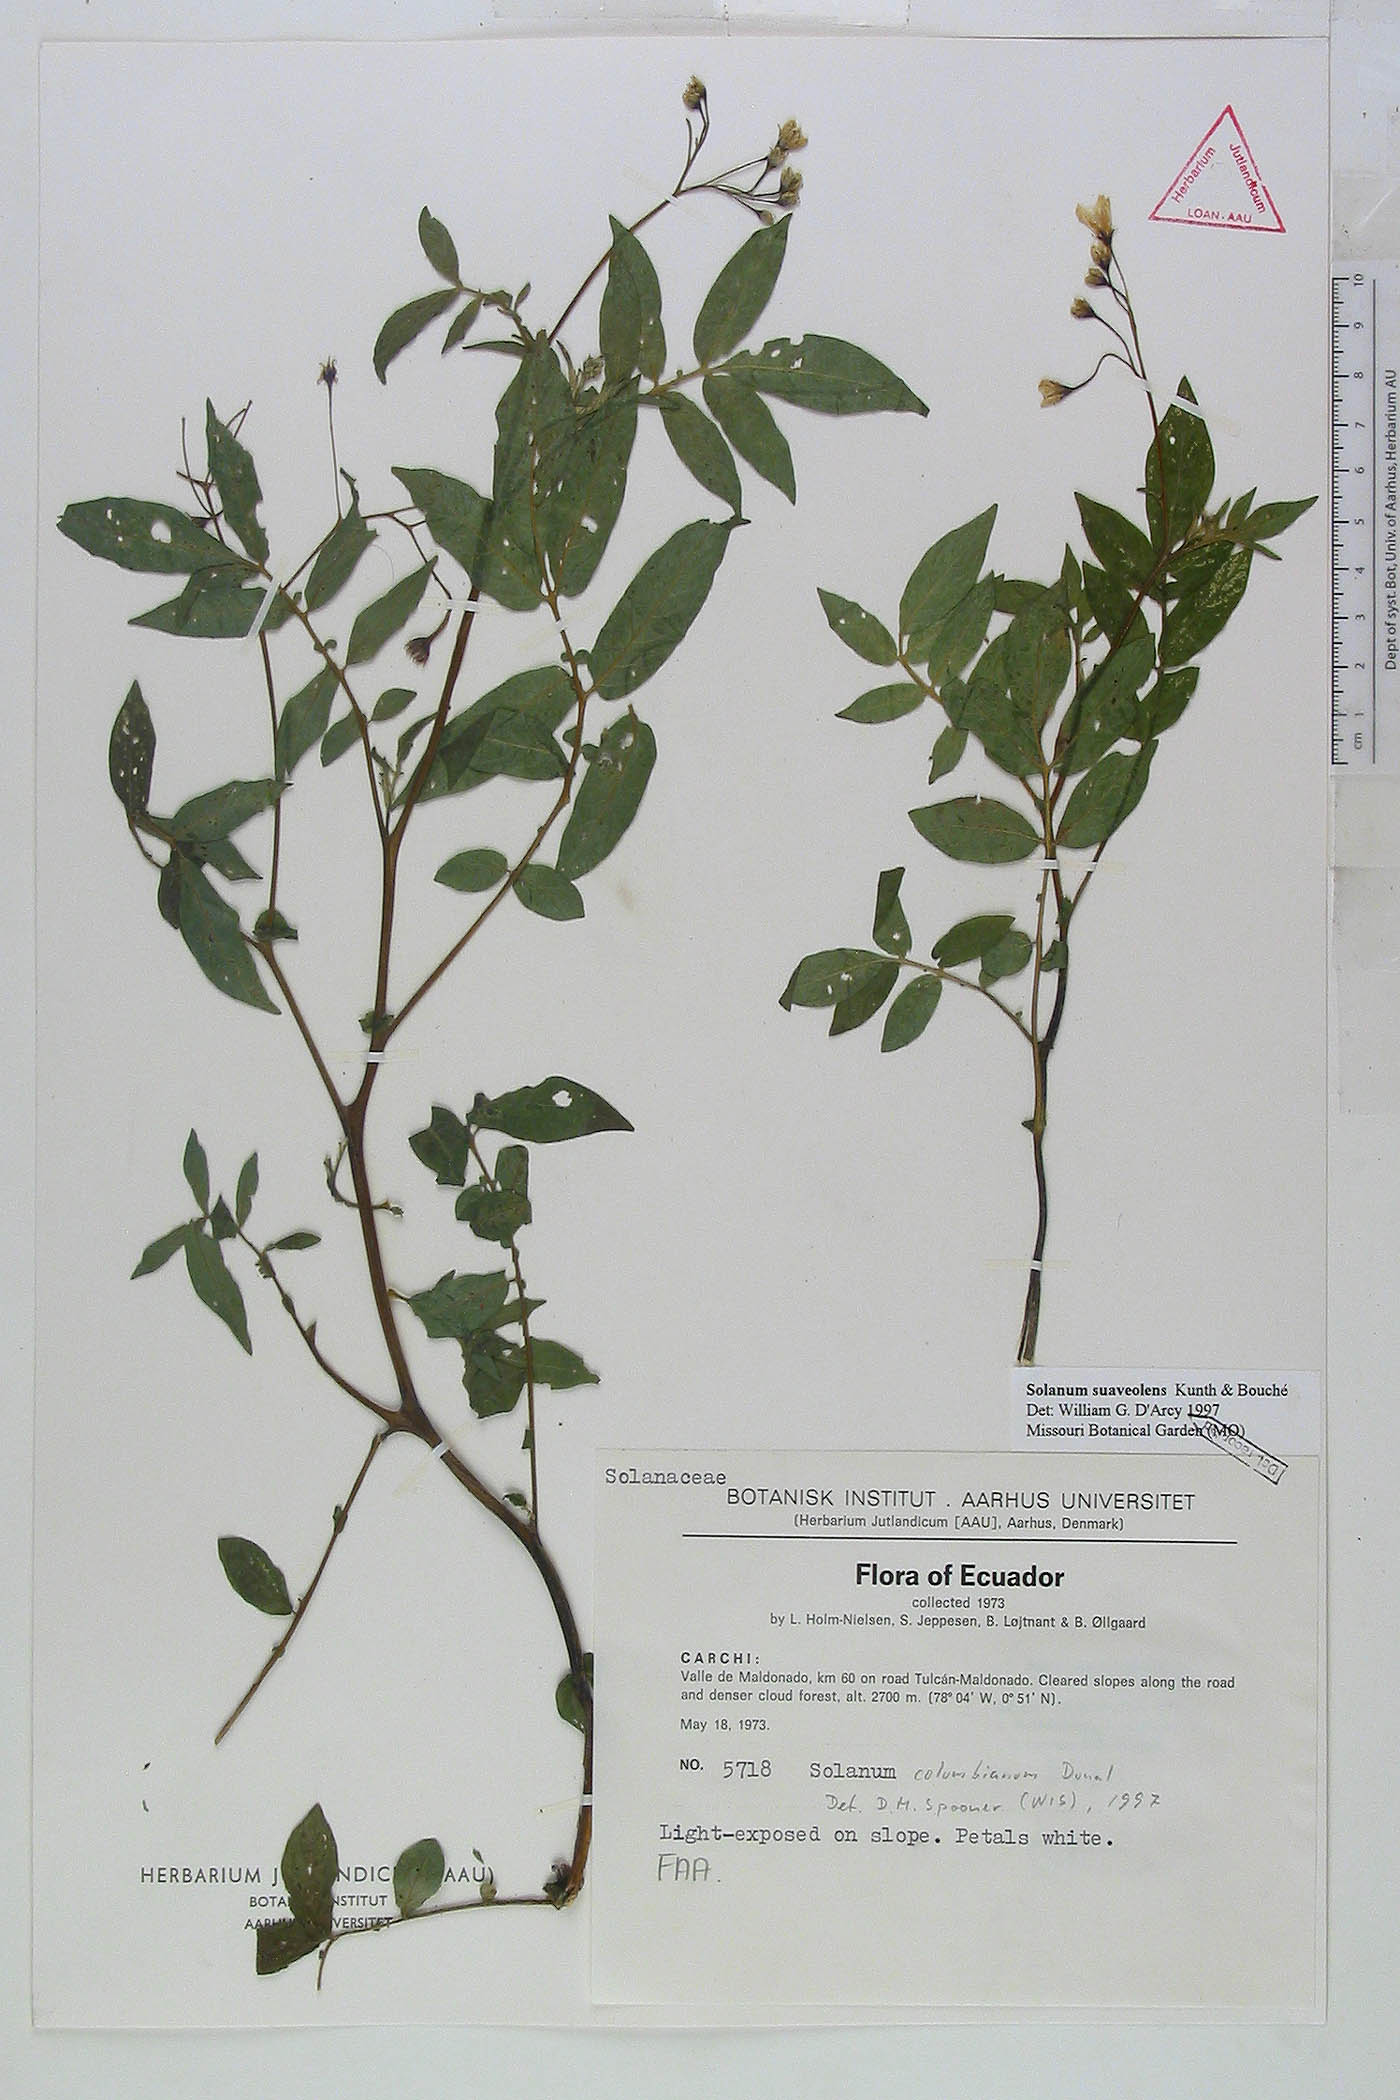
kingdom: Plantae
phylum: Tracheophyta
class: Magnoliopsida
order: Solanales
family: Solanaceae
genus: Solanum
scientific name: Solanum colombianum
